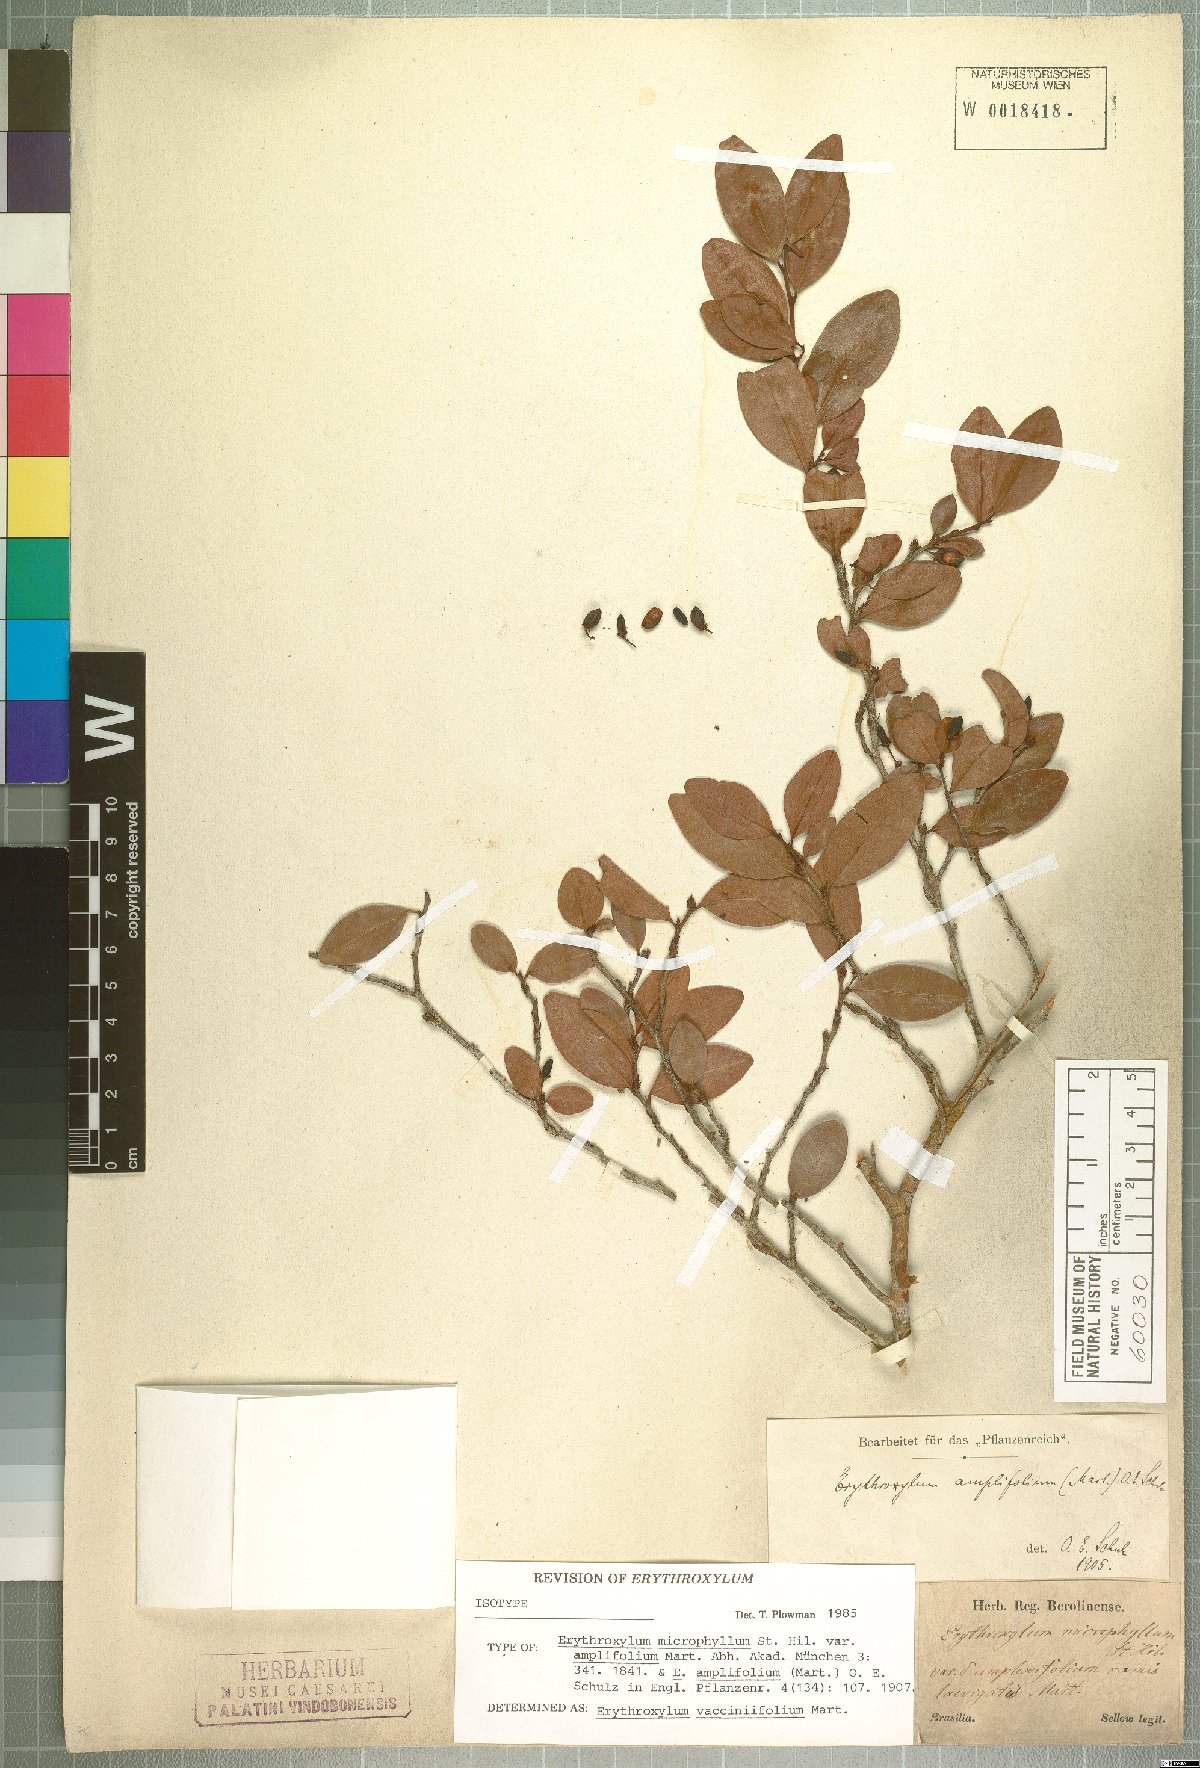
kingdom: Plantae
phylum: Tracheophyta
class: Magnoliopsida
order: Malpighiales
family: Erythroxylaceae
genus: Erythroxylum
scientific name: Erythroxylum vaccinifolium
